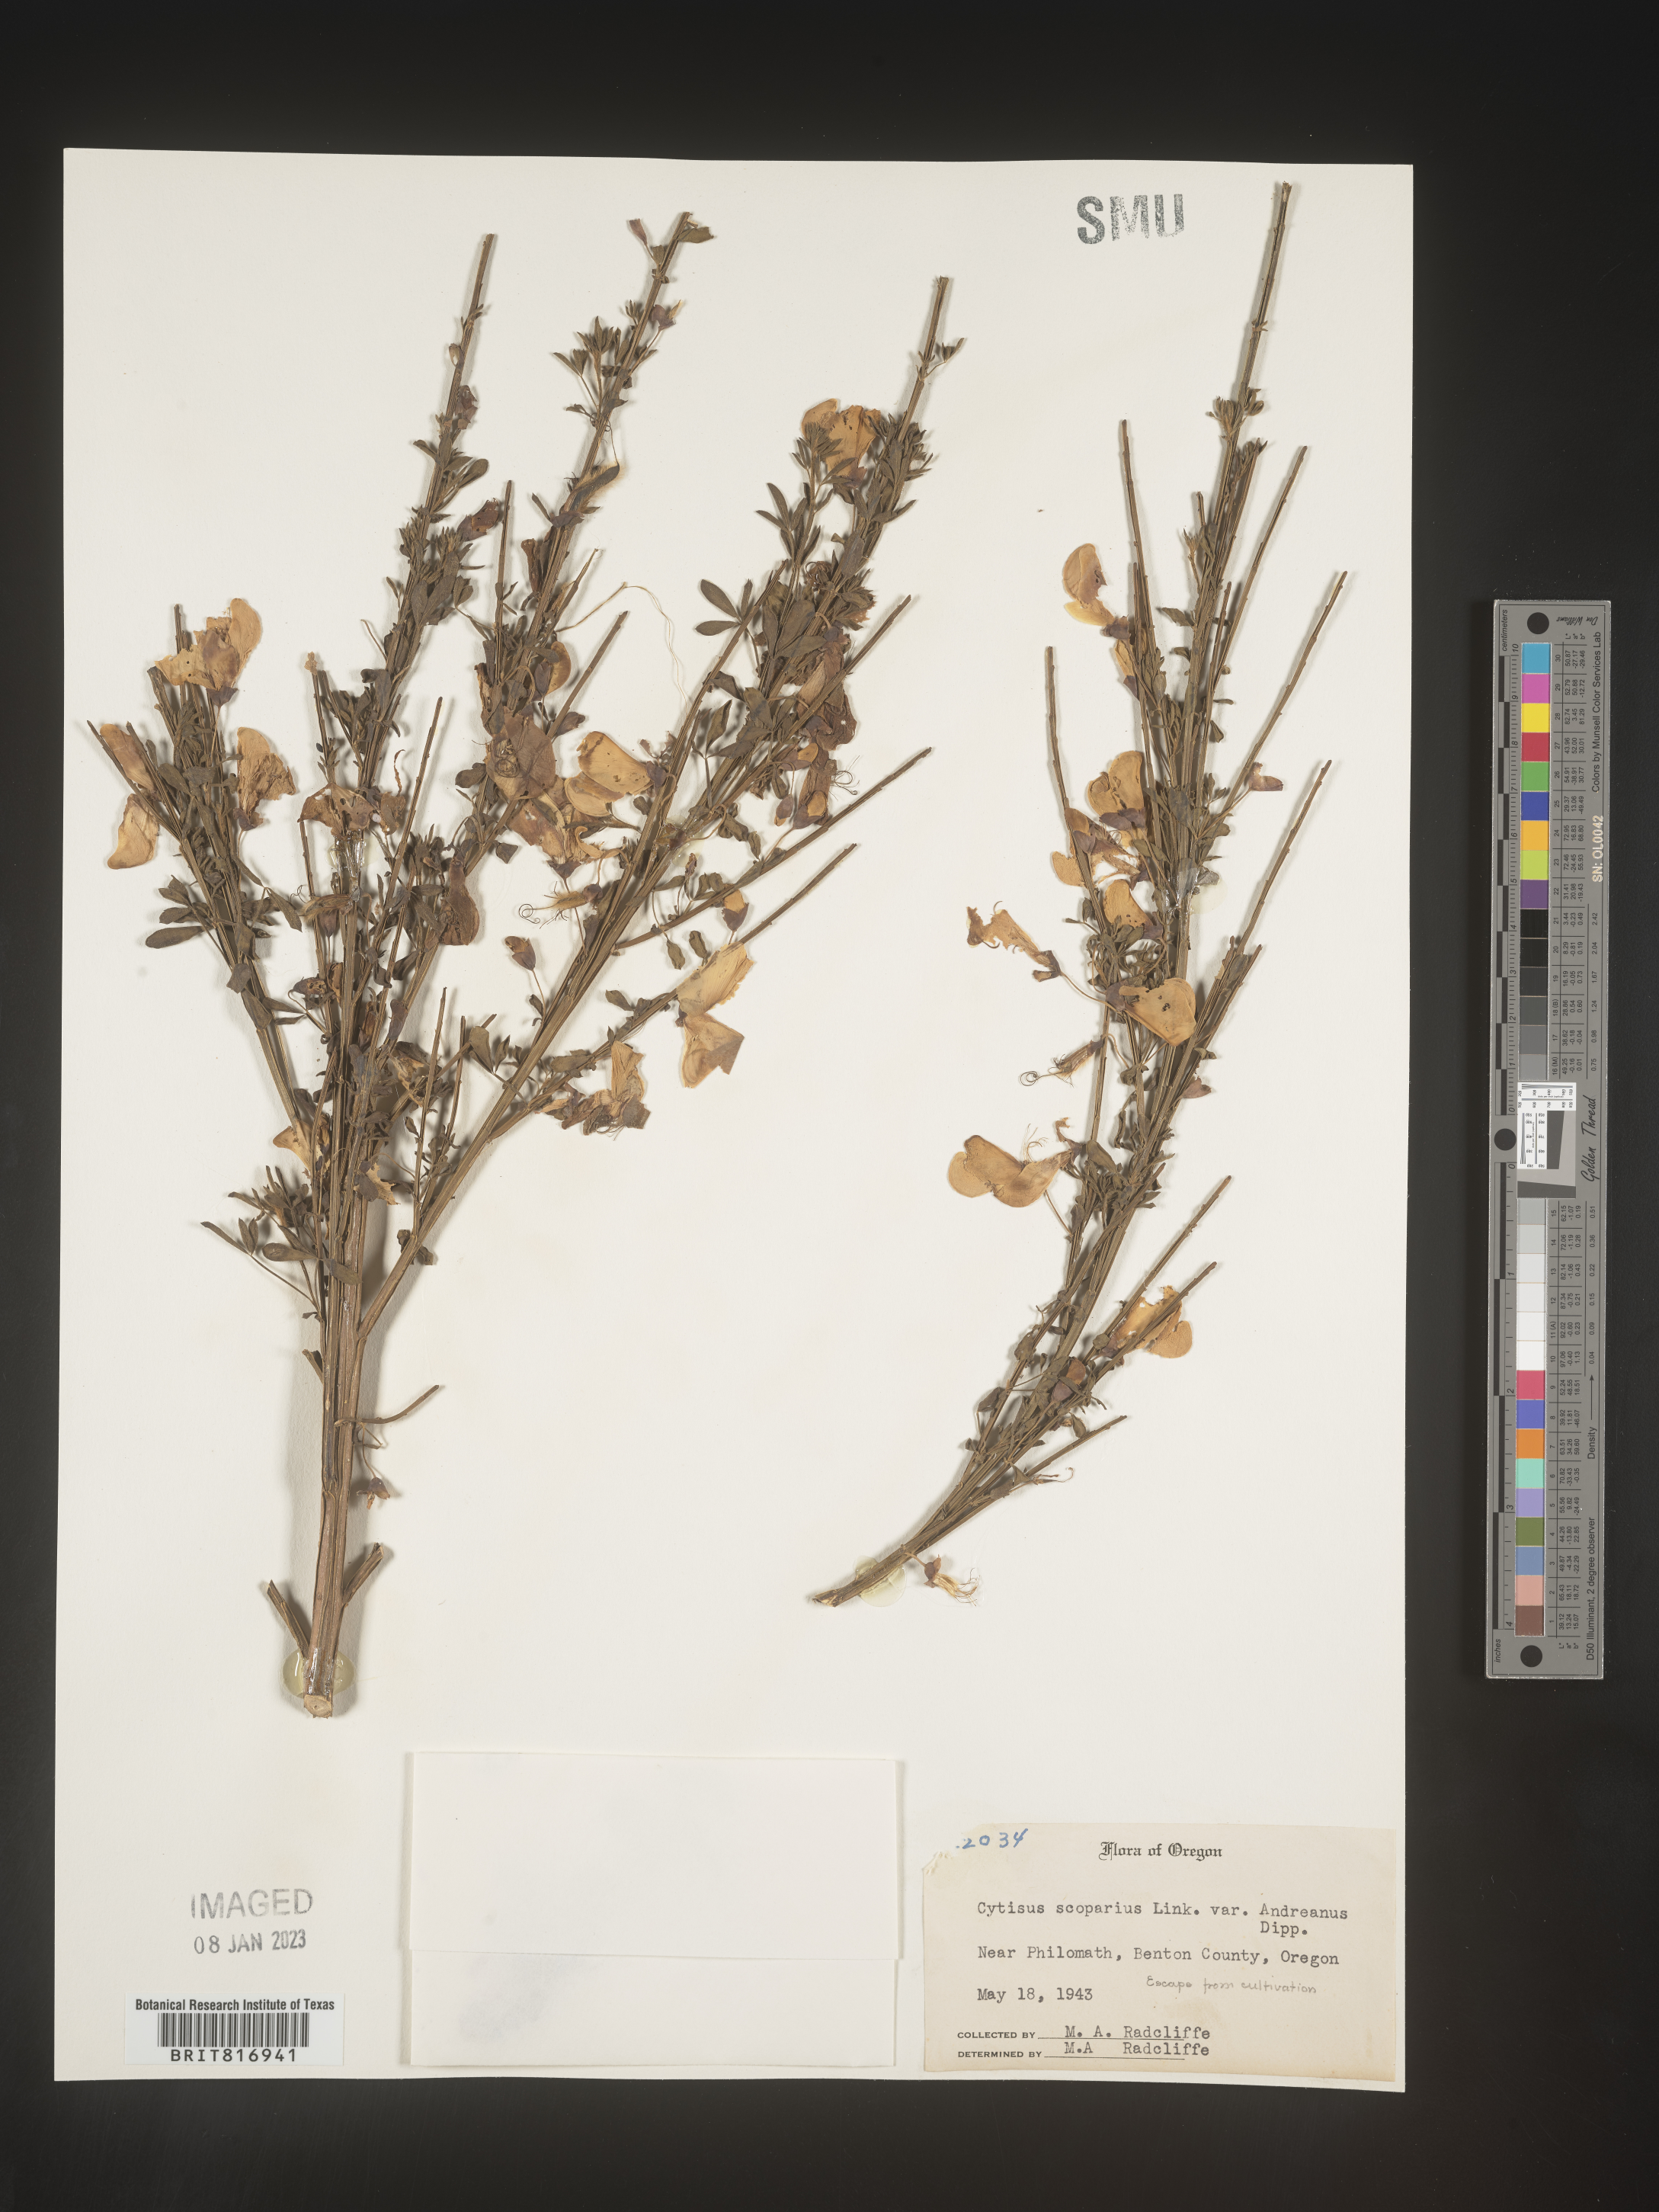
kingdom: Plantae
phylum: Tracheophyta
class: Magnoliopsida
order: Fabales
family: Fabaceae
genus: Cytisus
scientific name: Cytisus
